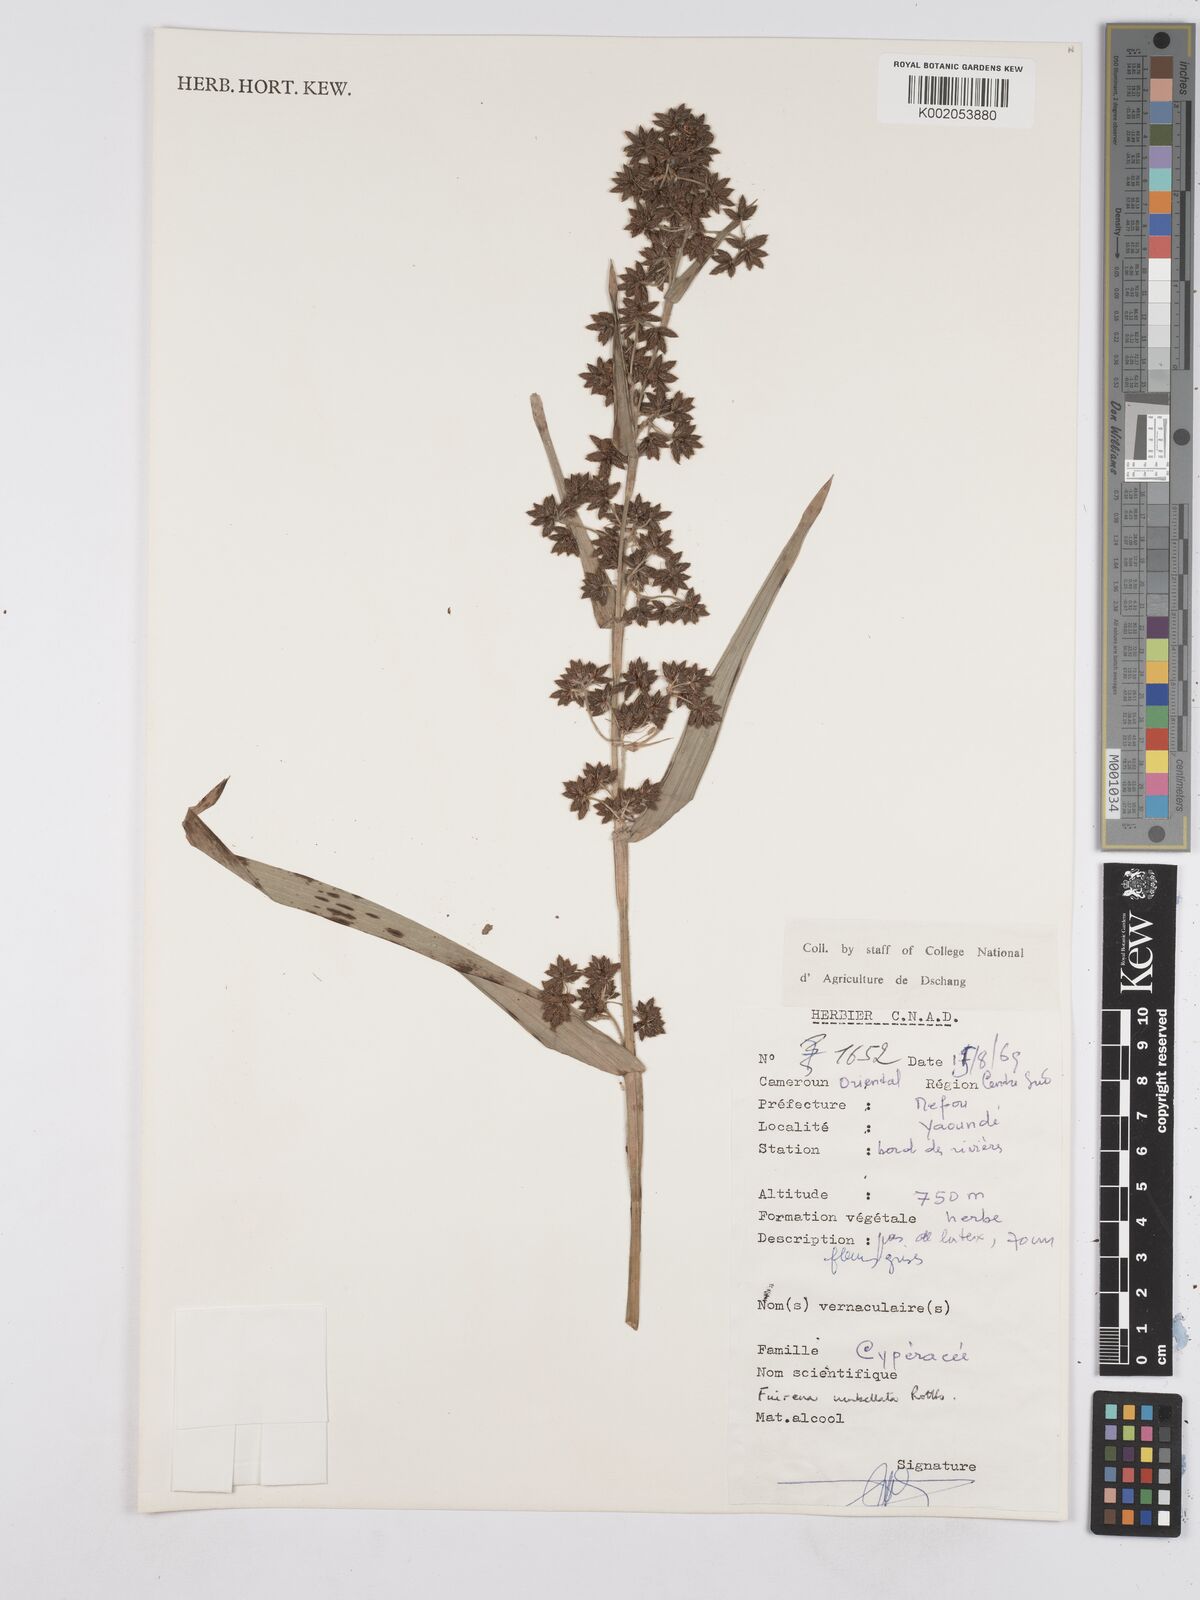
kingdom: Plantae
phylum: Tracheophyta
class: Liliopsida
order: Poales
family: Cyperaceae
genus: Fuirena
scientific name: Fuirena umbellata
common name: Yefen
